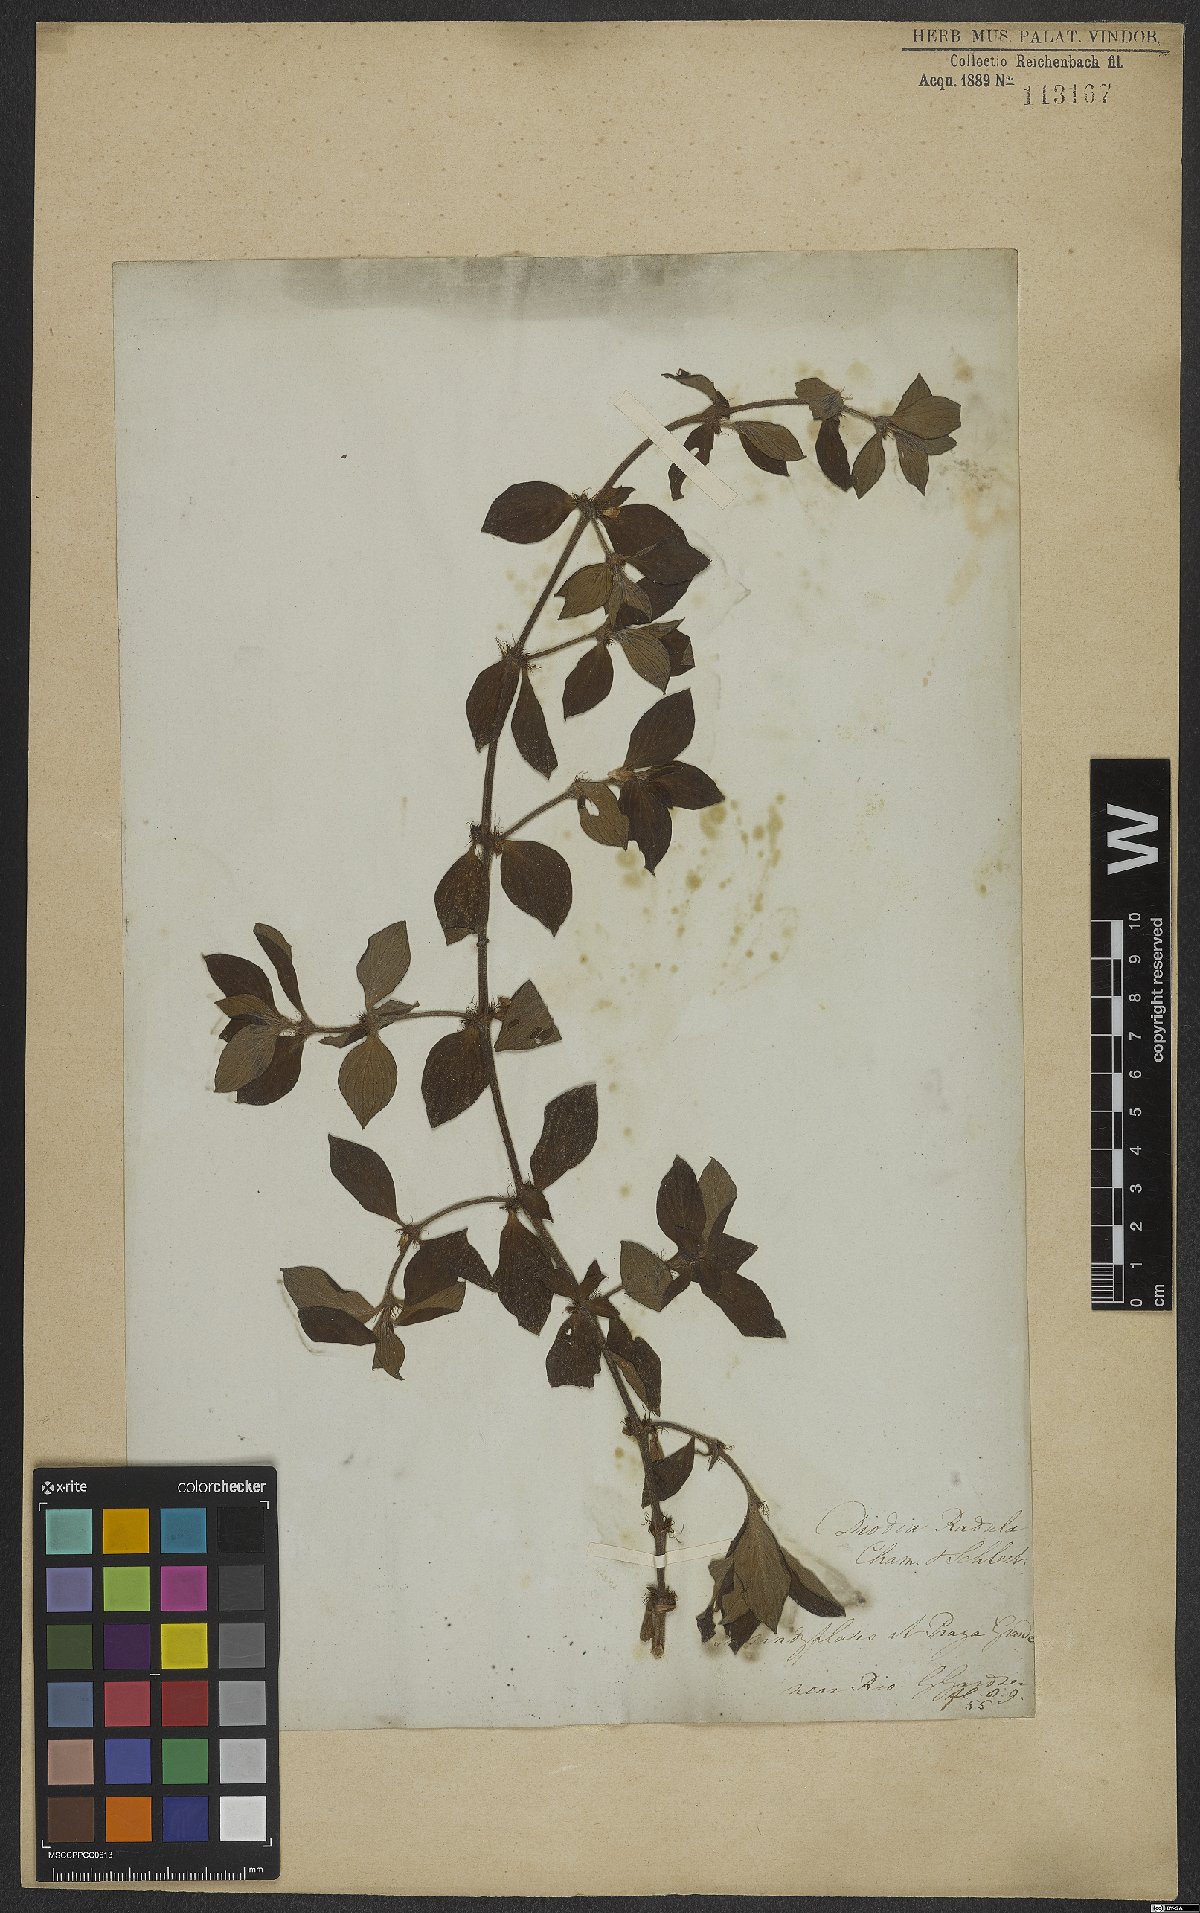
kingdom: Plantae
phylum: Tracheophyta
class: Magnoliopsida
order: Gentianales
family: Rubiaceae
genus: Hexasepalum
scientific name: Hexasepalum radulum
